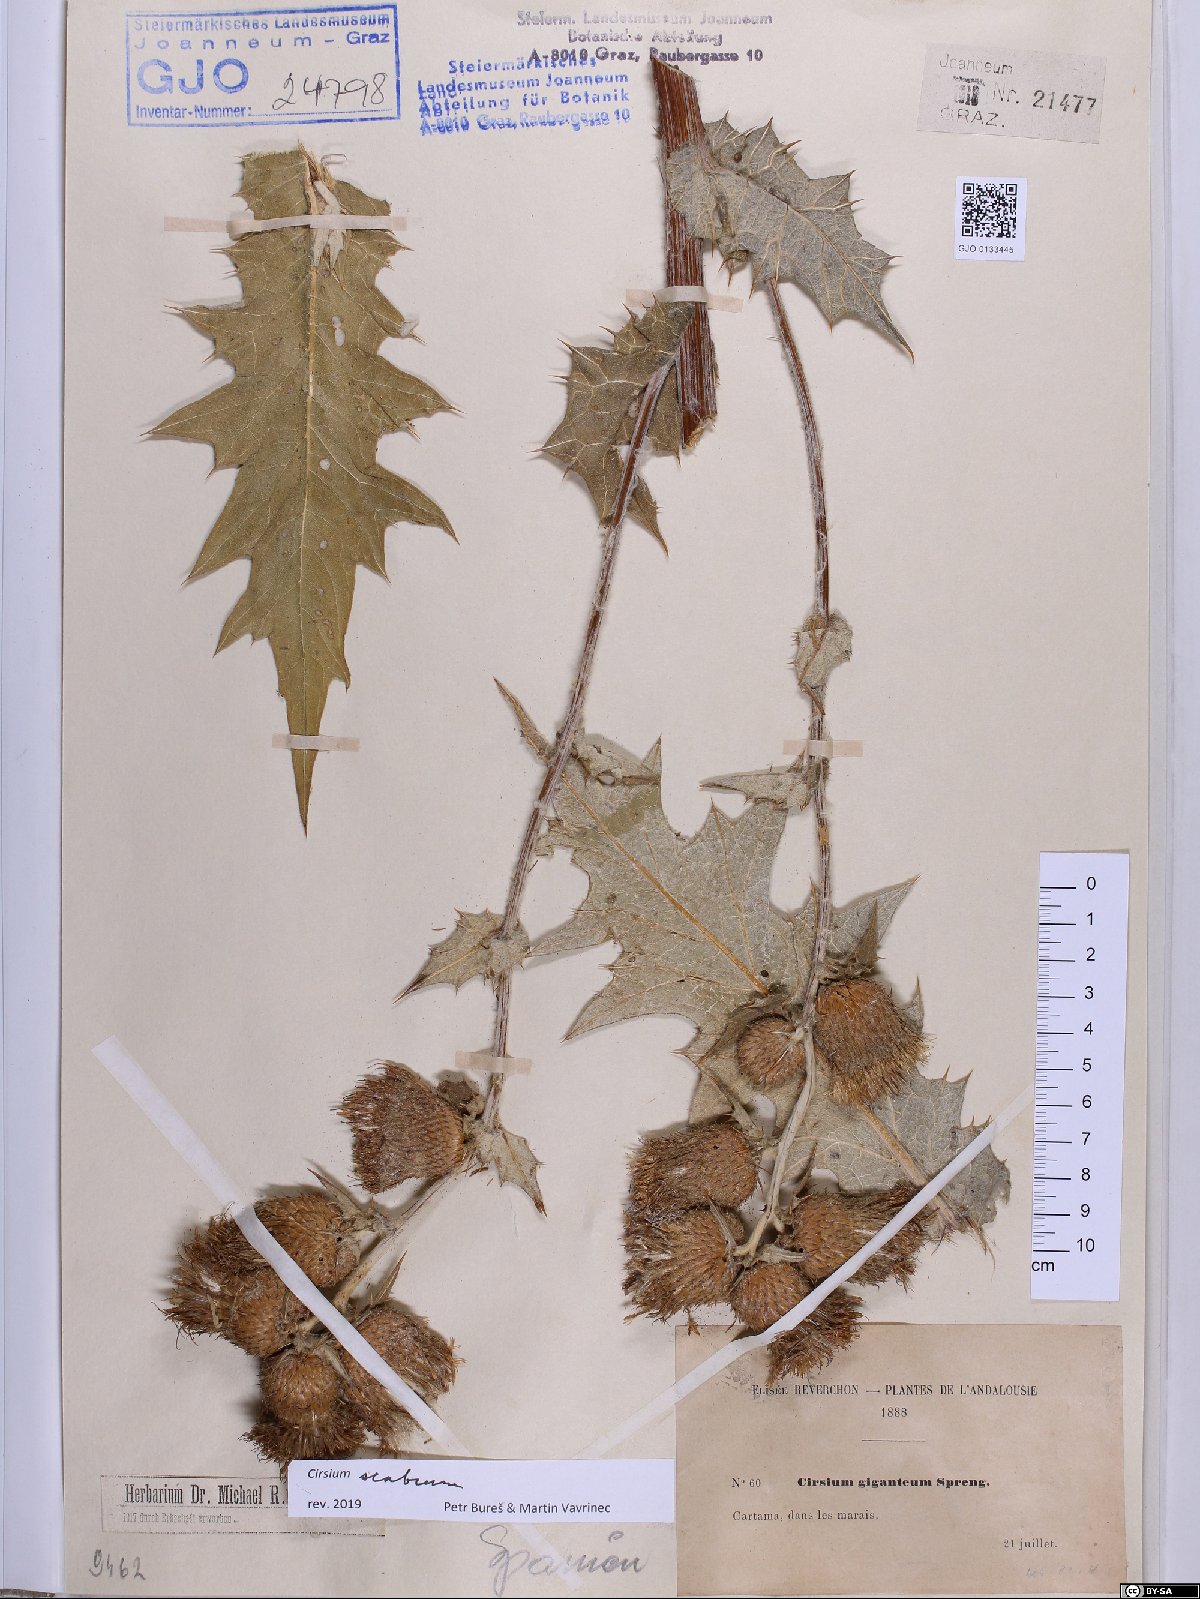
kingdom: Plantae
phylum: Tracheophyta
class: Magnoliopsida
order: Asterales
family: Asteraceae
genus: Lophiolepis
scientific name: Lophiolepis scabra
